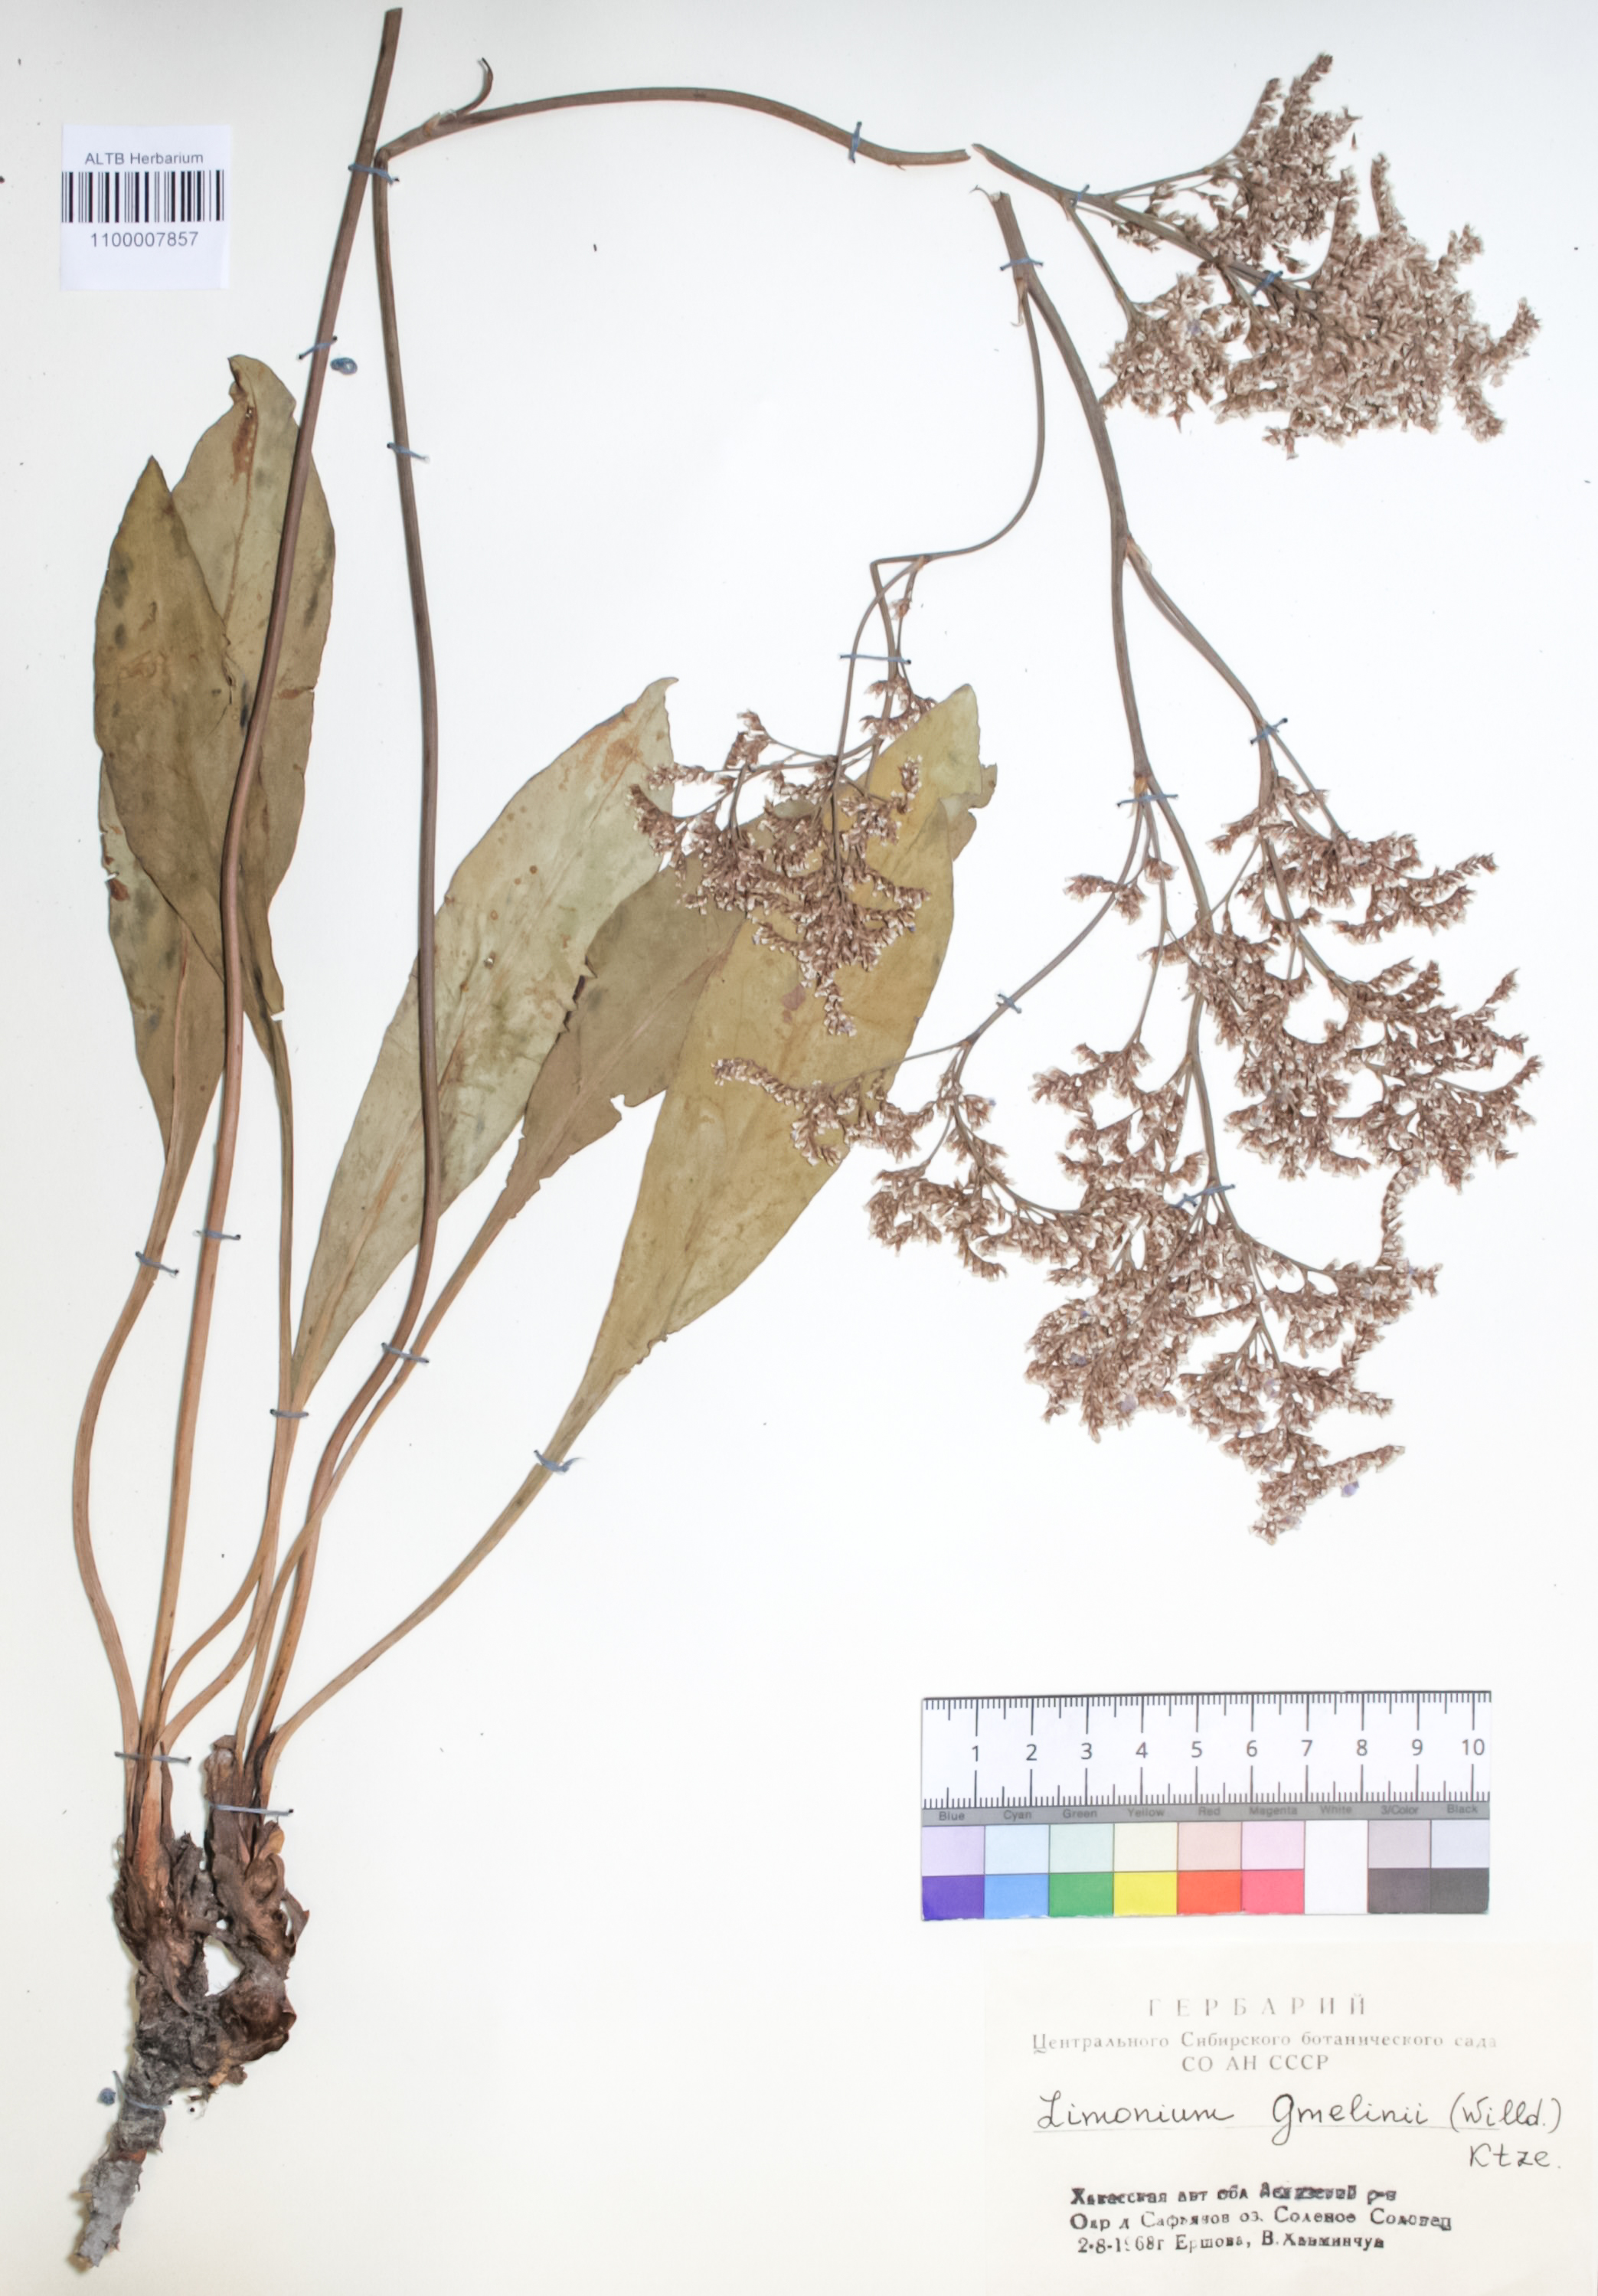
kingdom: Plantae
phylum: Tracheophyta
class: Magnoliopsida
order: Caryophyllales
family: Plumbaginaceae
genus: Limonium
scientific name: Limonium gmelini
